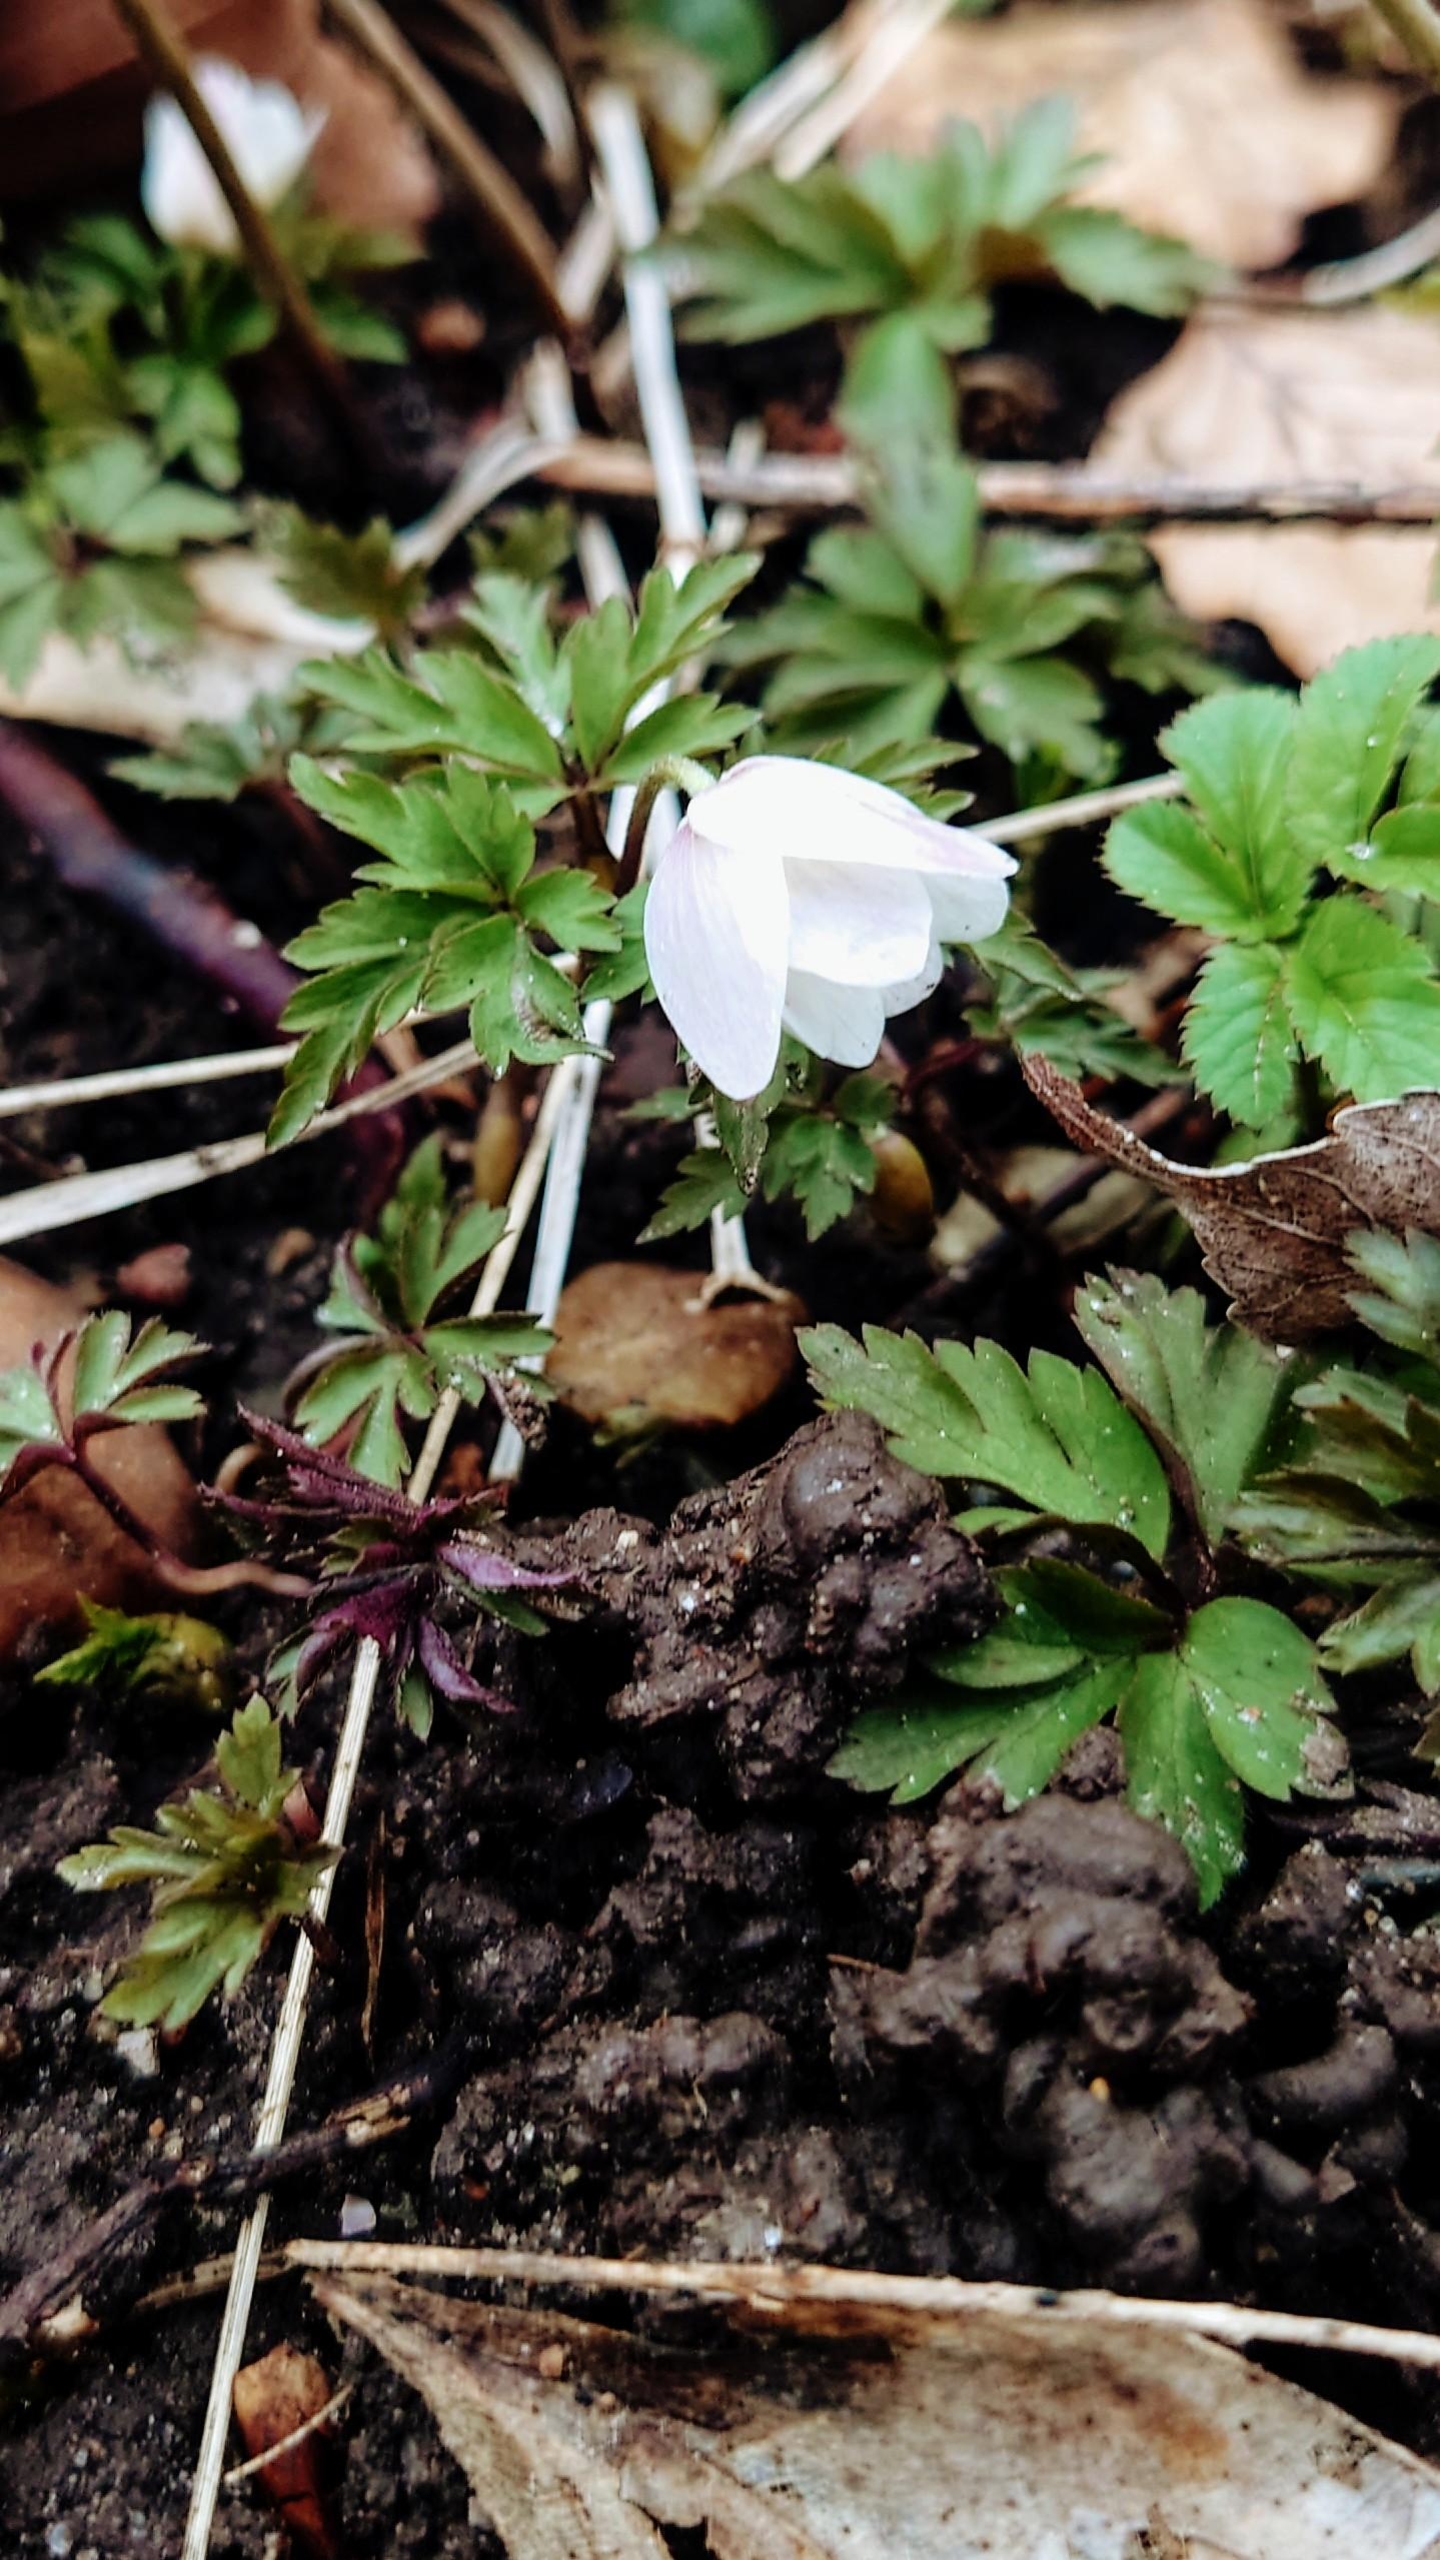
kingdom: Plantae
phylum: Tracheophyta
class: Magnoliopsida
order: Ranunculales
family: Ranunculaceae
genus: Anemone
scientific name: Anemone nemorosa
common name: Hvid anemone
